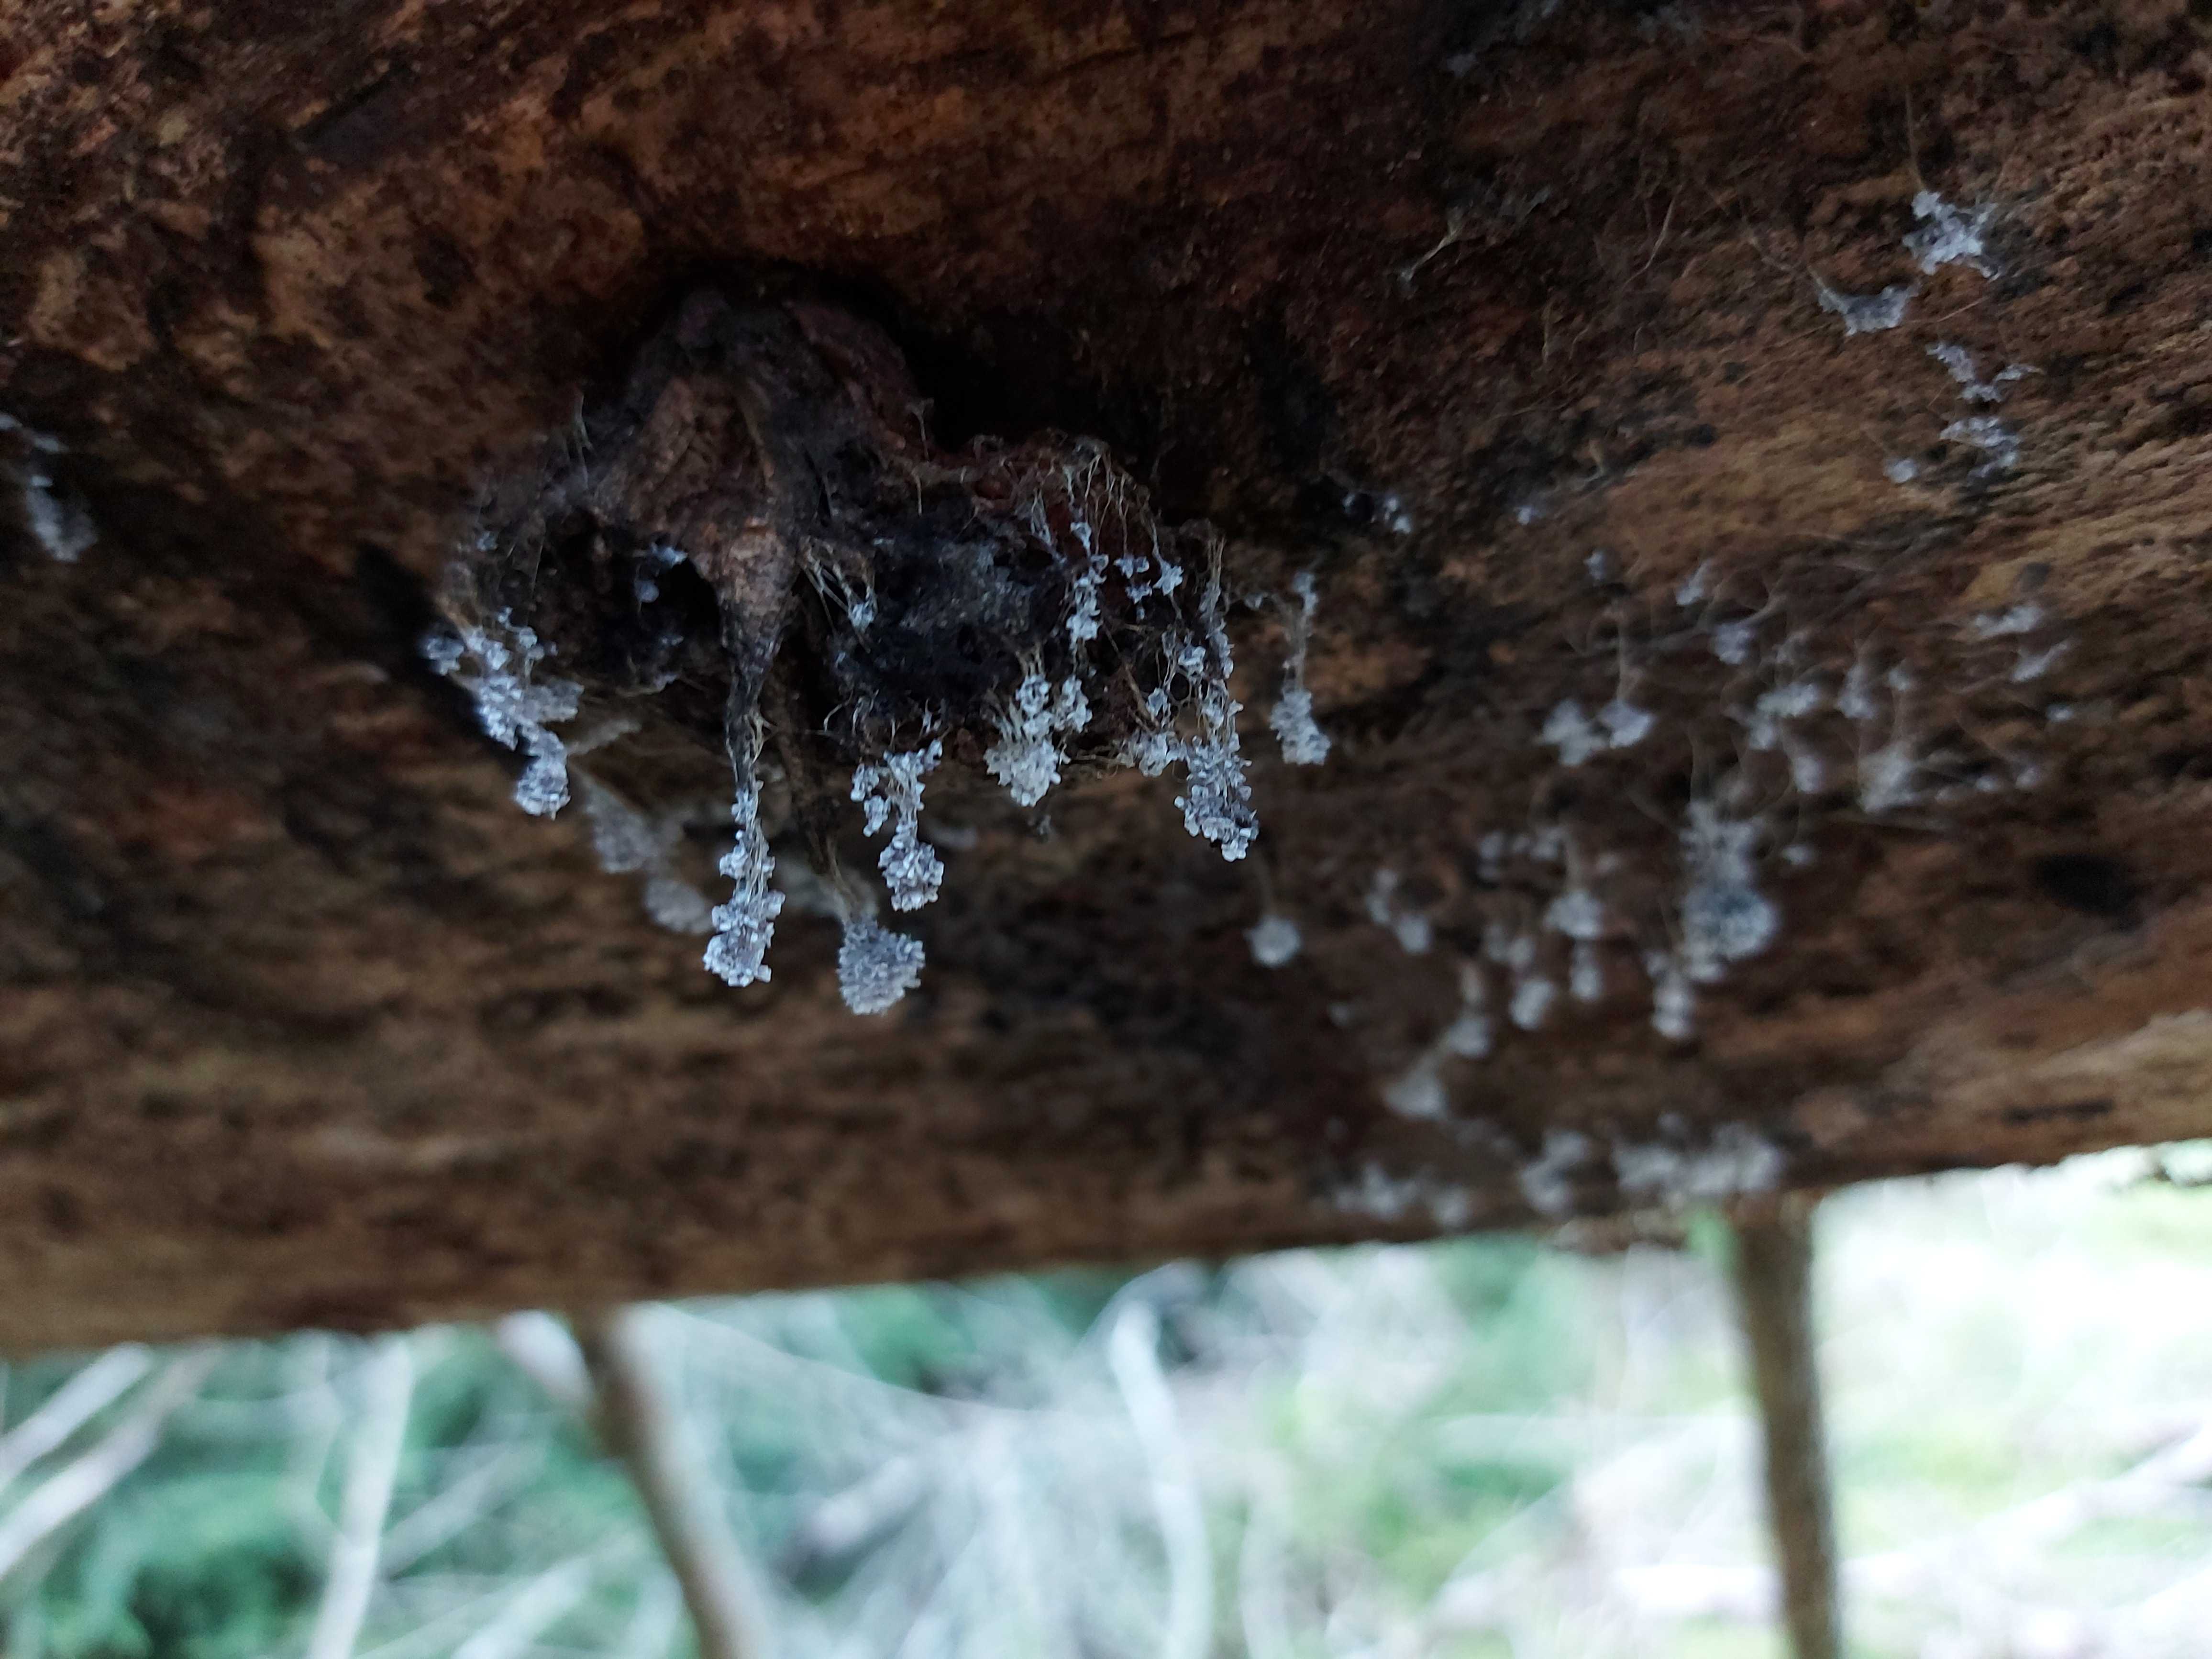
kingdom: Protozoa
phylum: Mycetozoa
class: Myxomycetes
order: Physarales
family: Physaraceae
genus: Badhamia
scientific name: Badhamia utricularis
